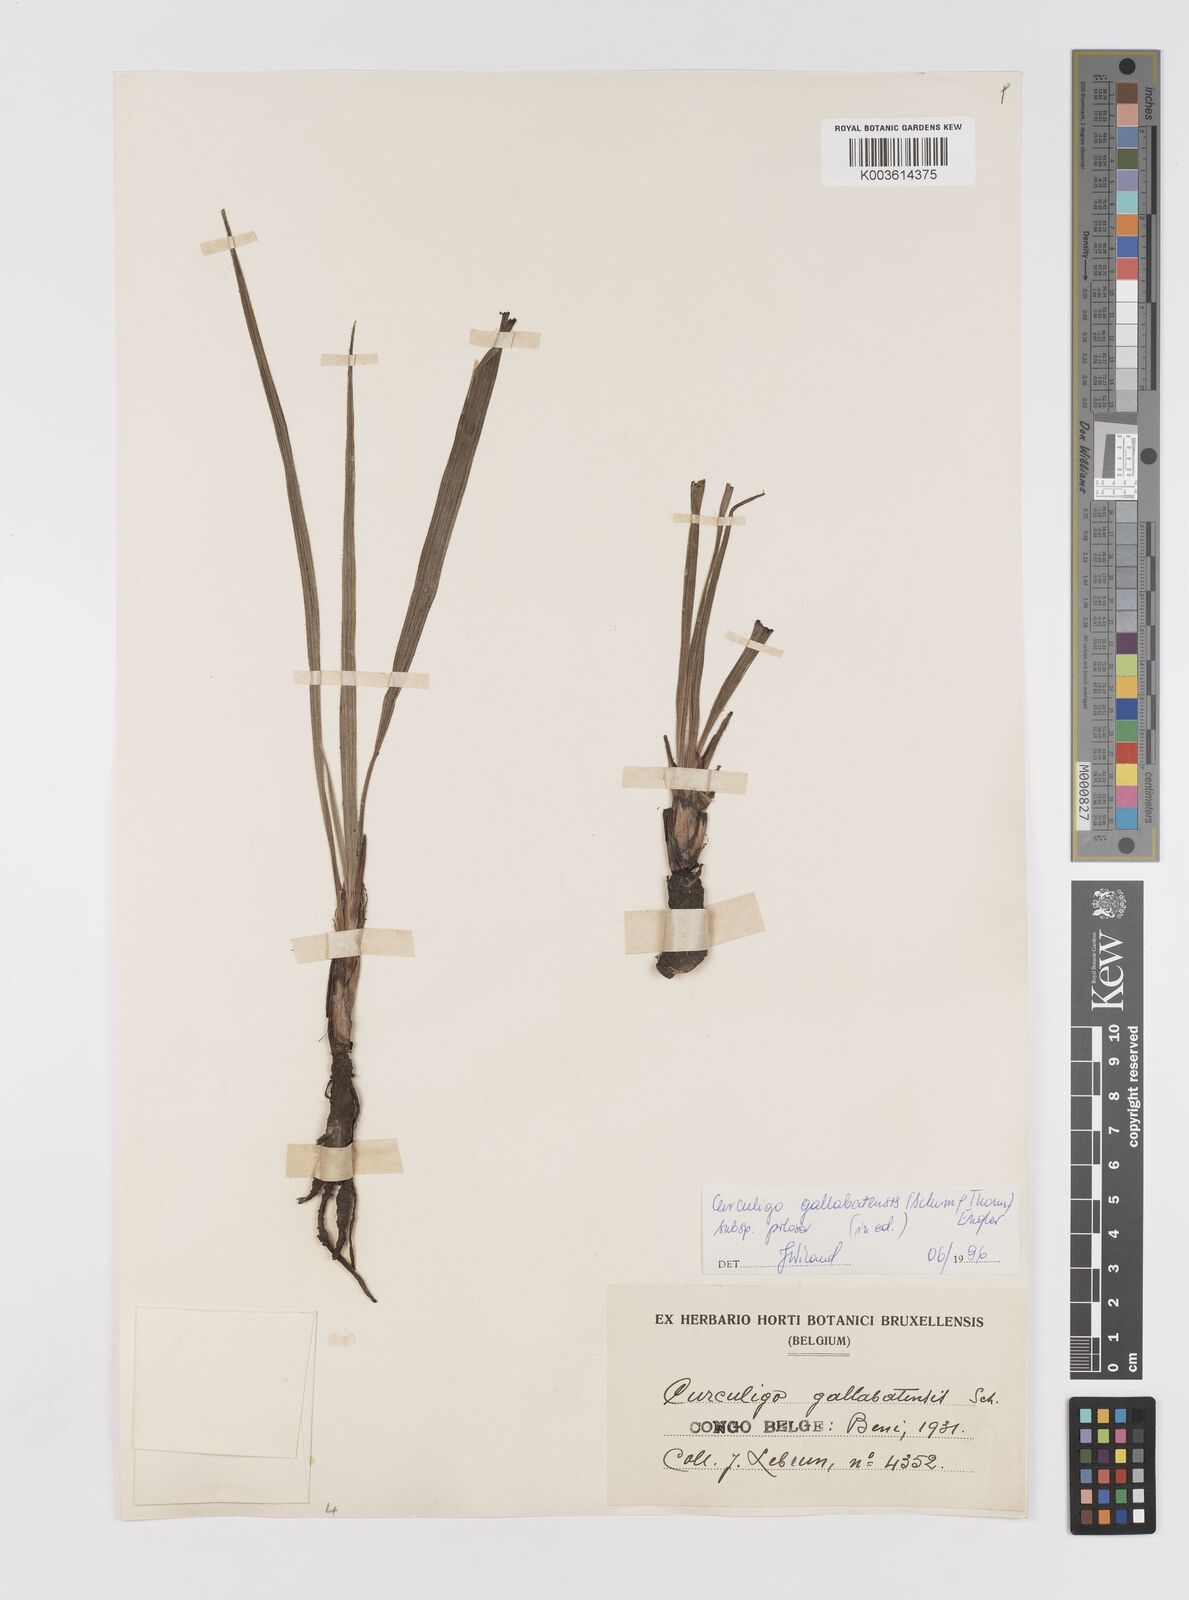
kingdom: Plantae
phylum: Tracheophyta
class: Liliopsida
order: Asparagales
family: Hypoxidaceae
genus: Curculigo
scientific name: Curculigo pilosa
